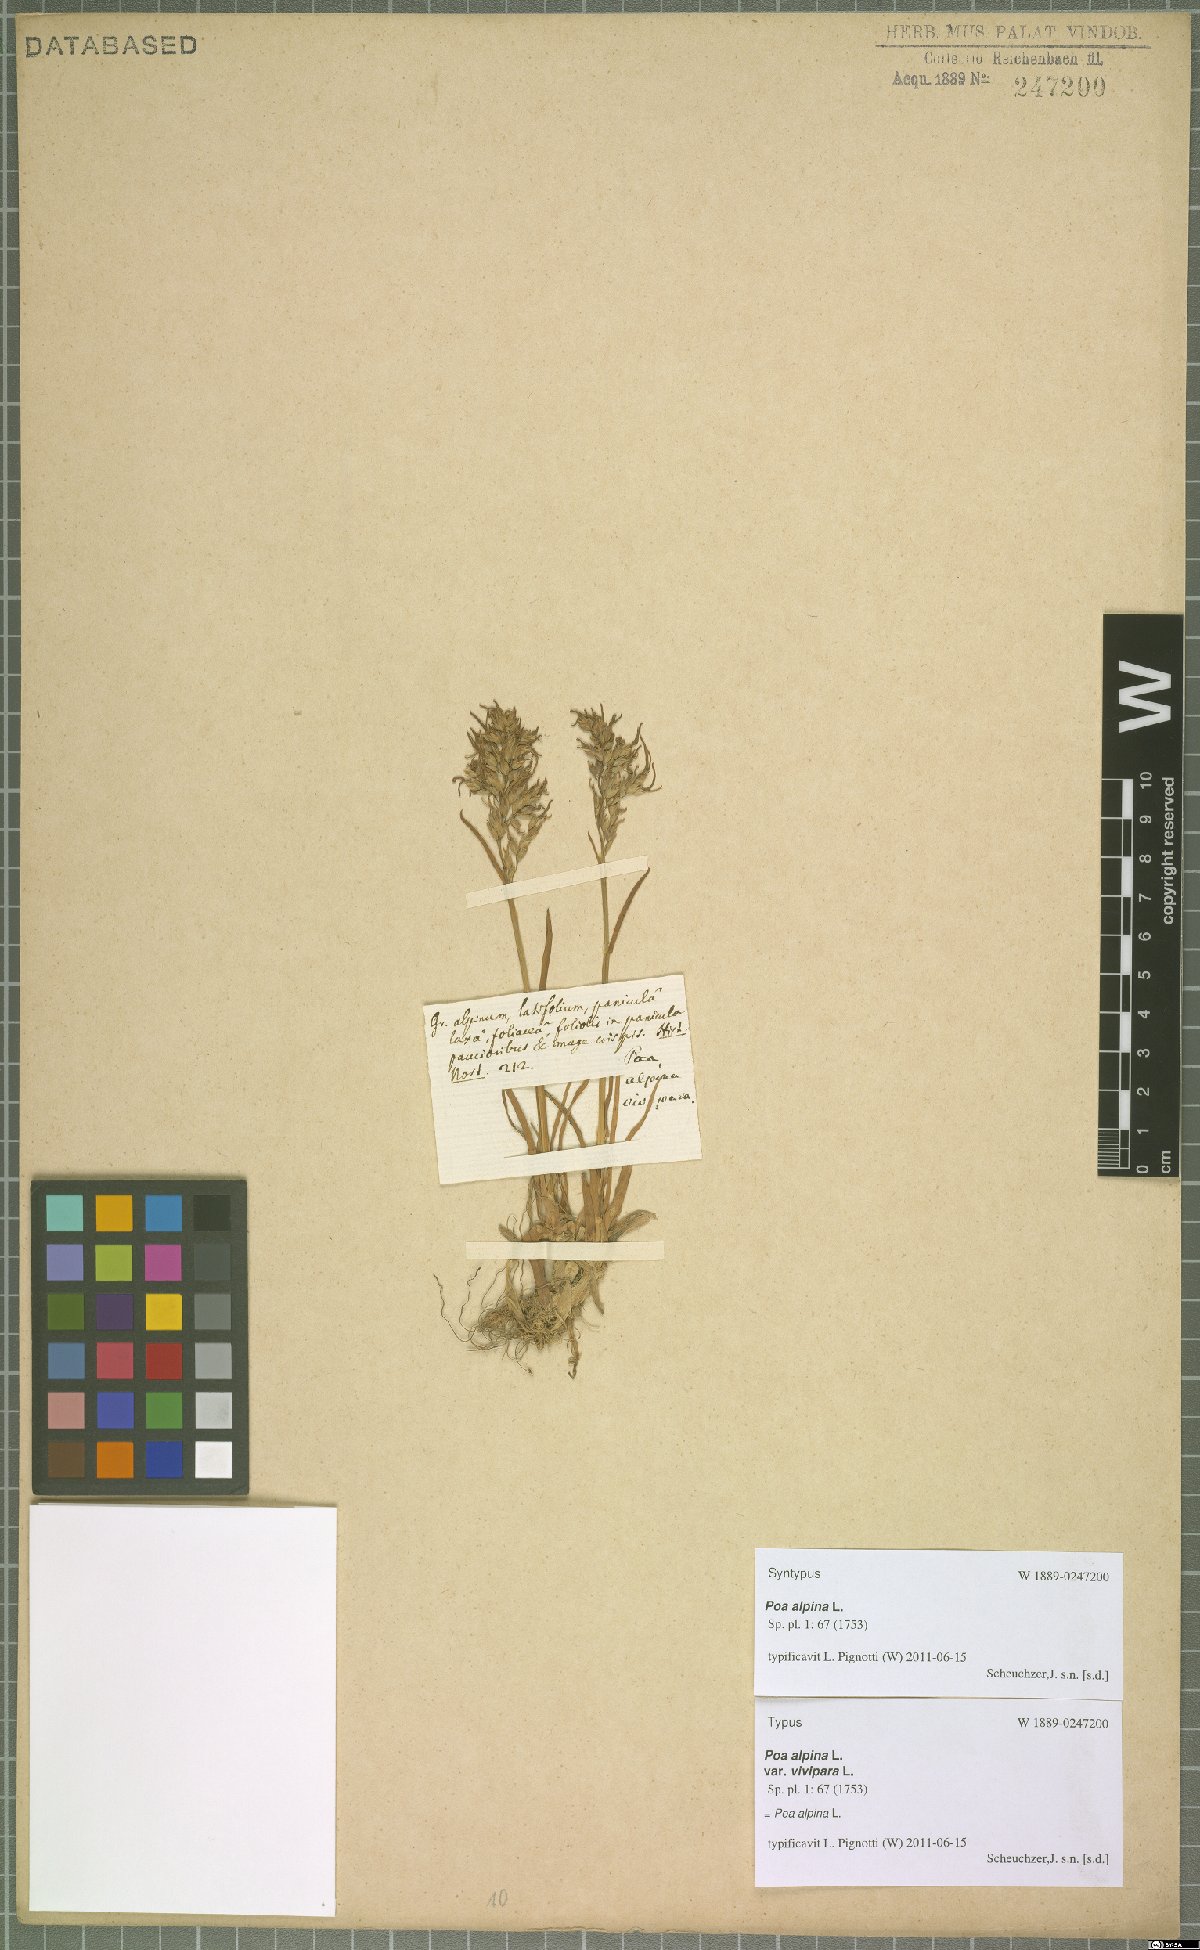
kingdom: Plantae
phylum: Tracheophyta
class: Liliopsida
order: Poales
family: Poaceae
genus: Poa
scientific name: Poa alpina
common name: Alpine bluegrass
